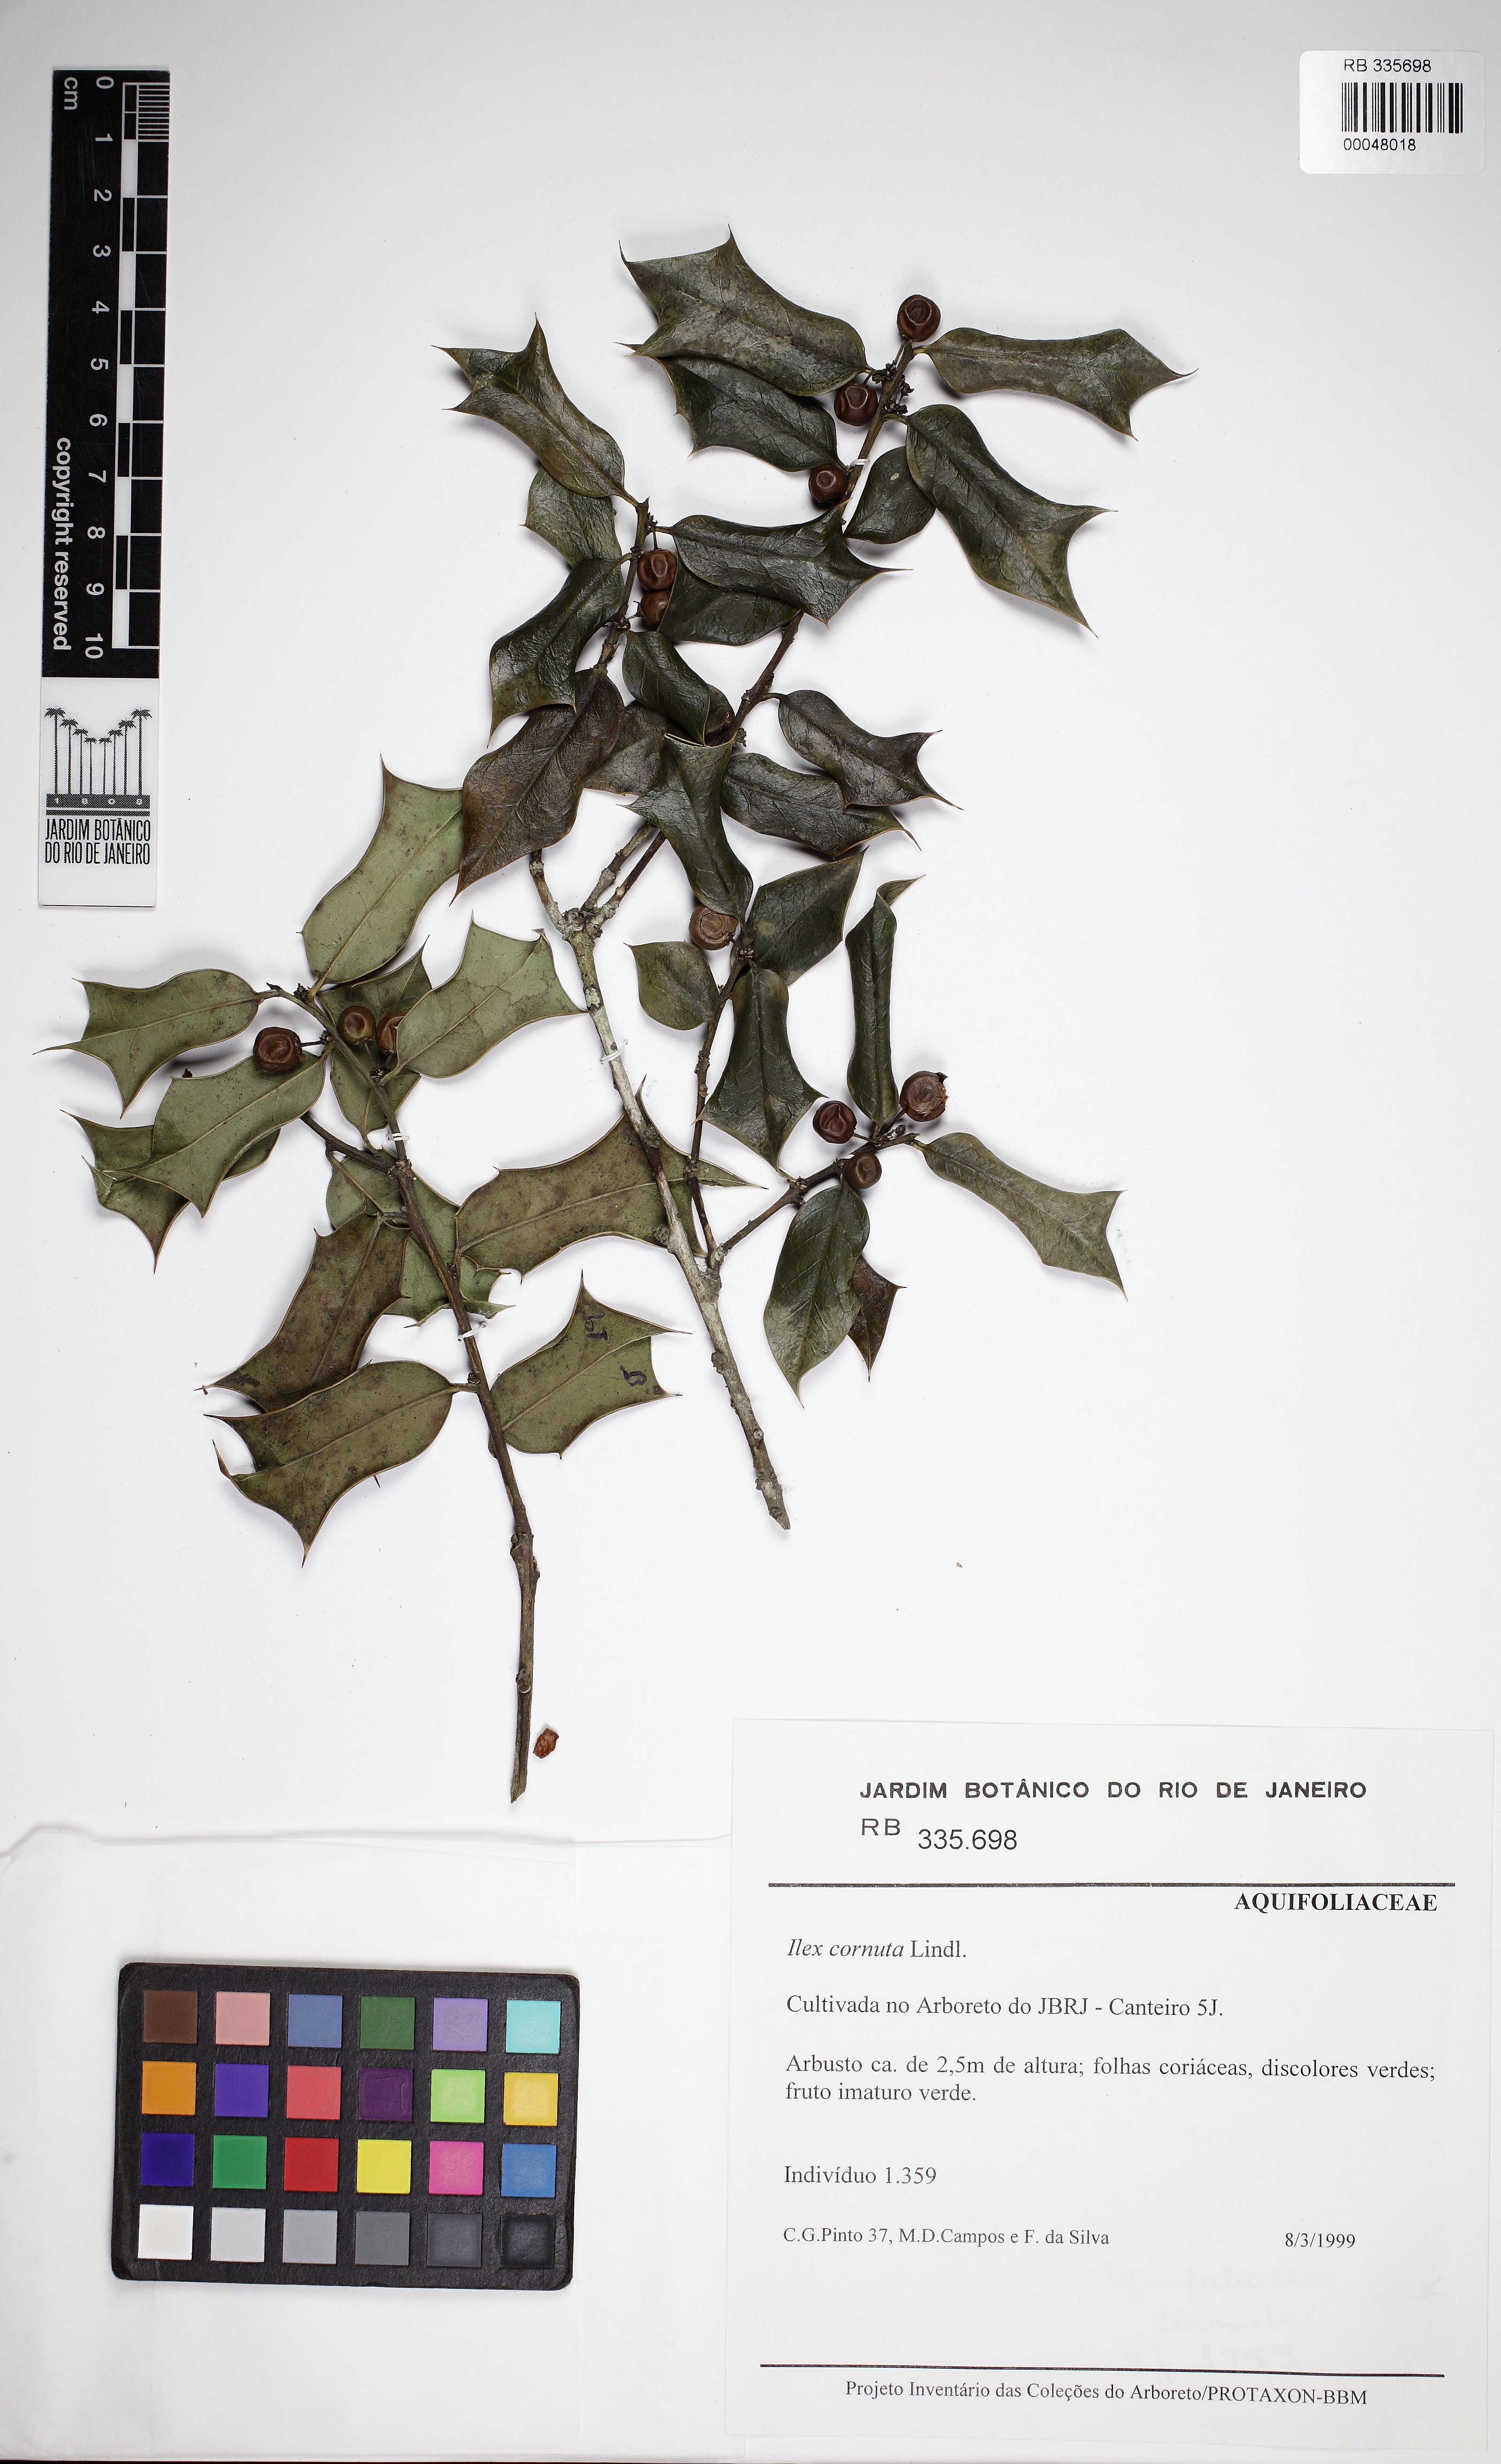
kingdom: Plantae
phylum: Tracheophyta
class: Magnoliopsida
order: Aquifoliales
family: Aquifoliaceae
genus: Ilex
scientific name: Ilex cornuta
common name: Chinese holly
